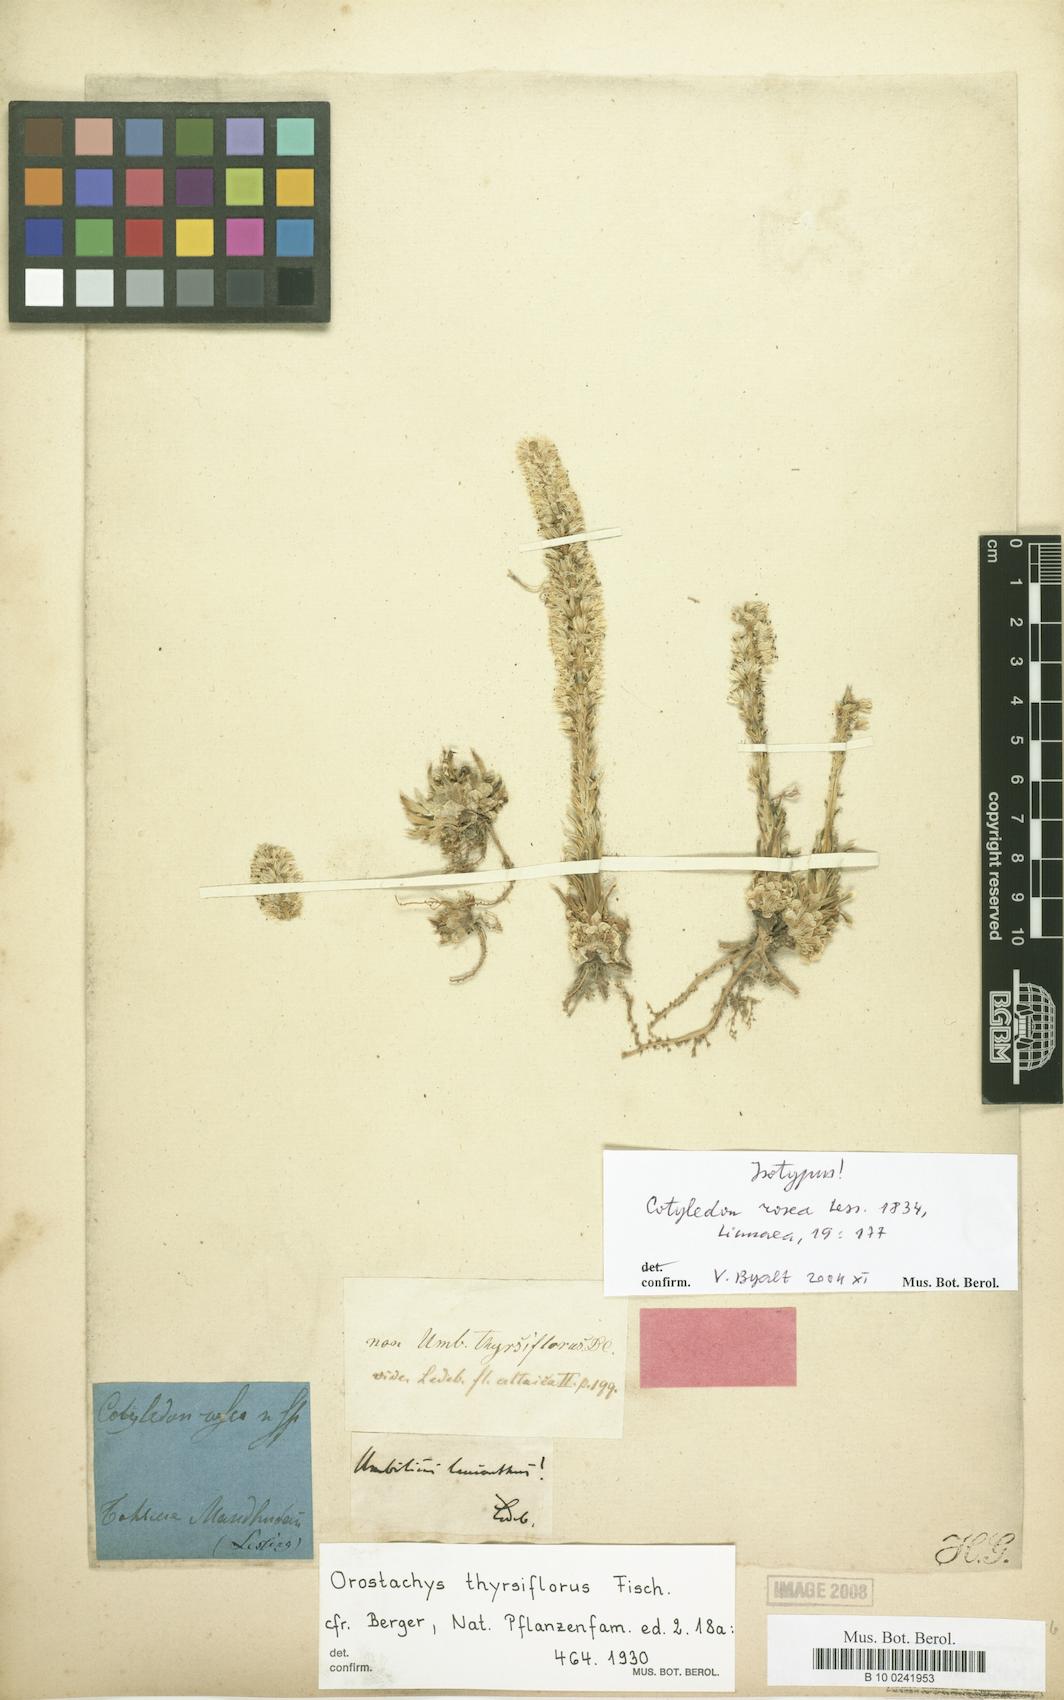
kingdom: Plantae
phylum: Tracheophyta
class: Magnoliopsida
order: Saxifragales
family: Crassulaceae
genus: Orostachys
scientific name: Orostachys thyrsiflora
